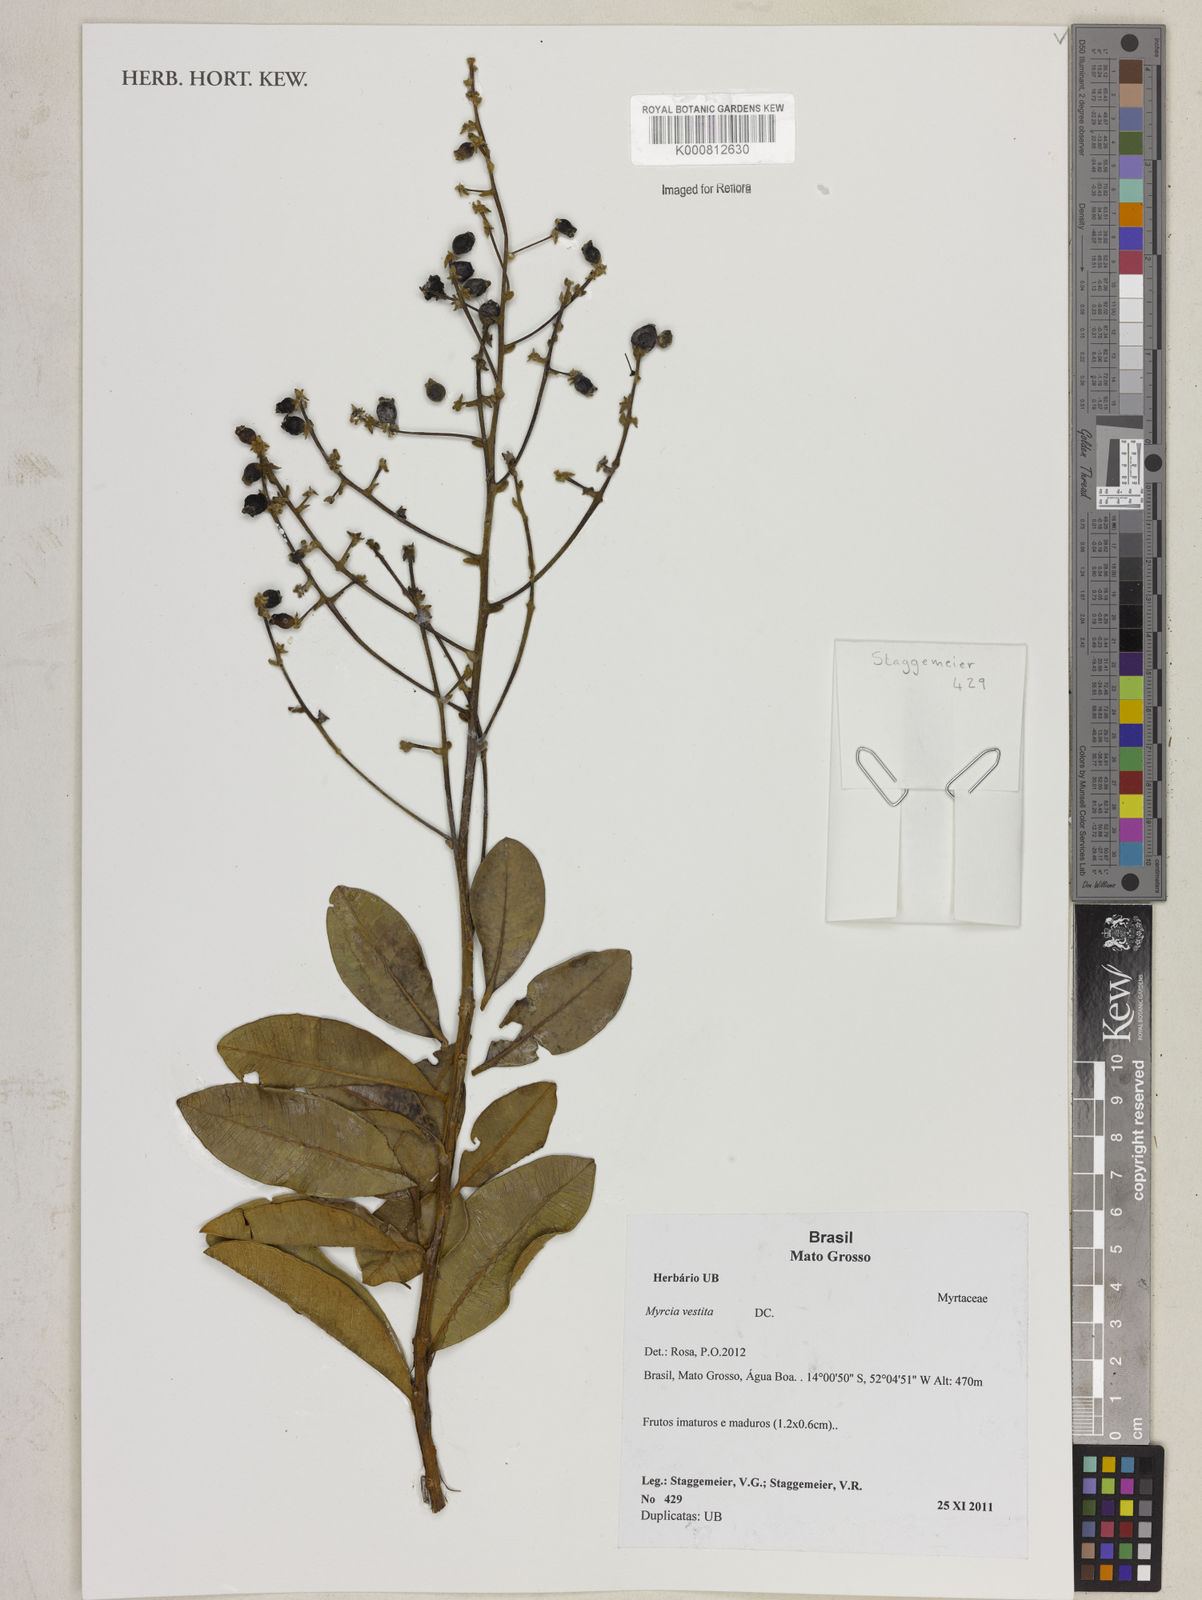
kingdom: Plantae
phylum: Tracheophyta
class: Magnoliopsida
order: Myrtales
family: Myrtaceae
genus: Myrcia
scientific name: Myrcia vestita
